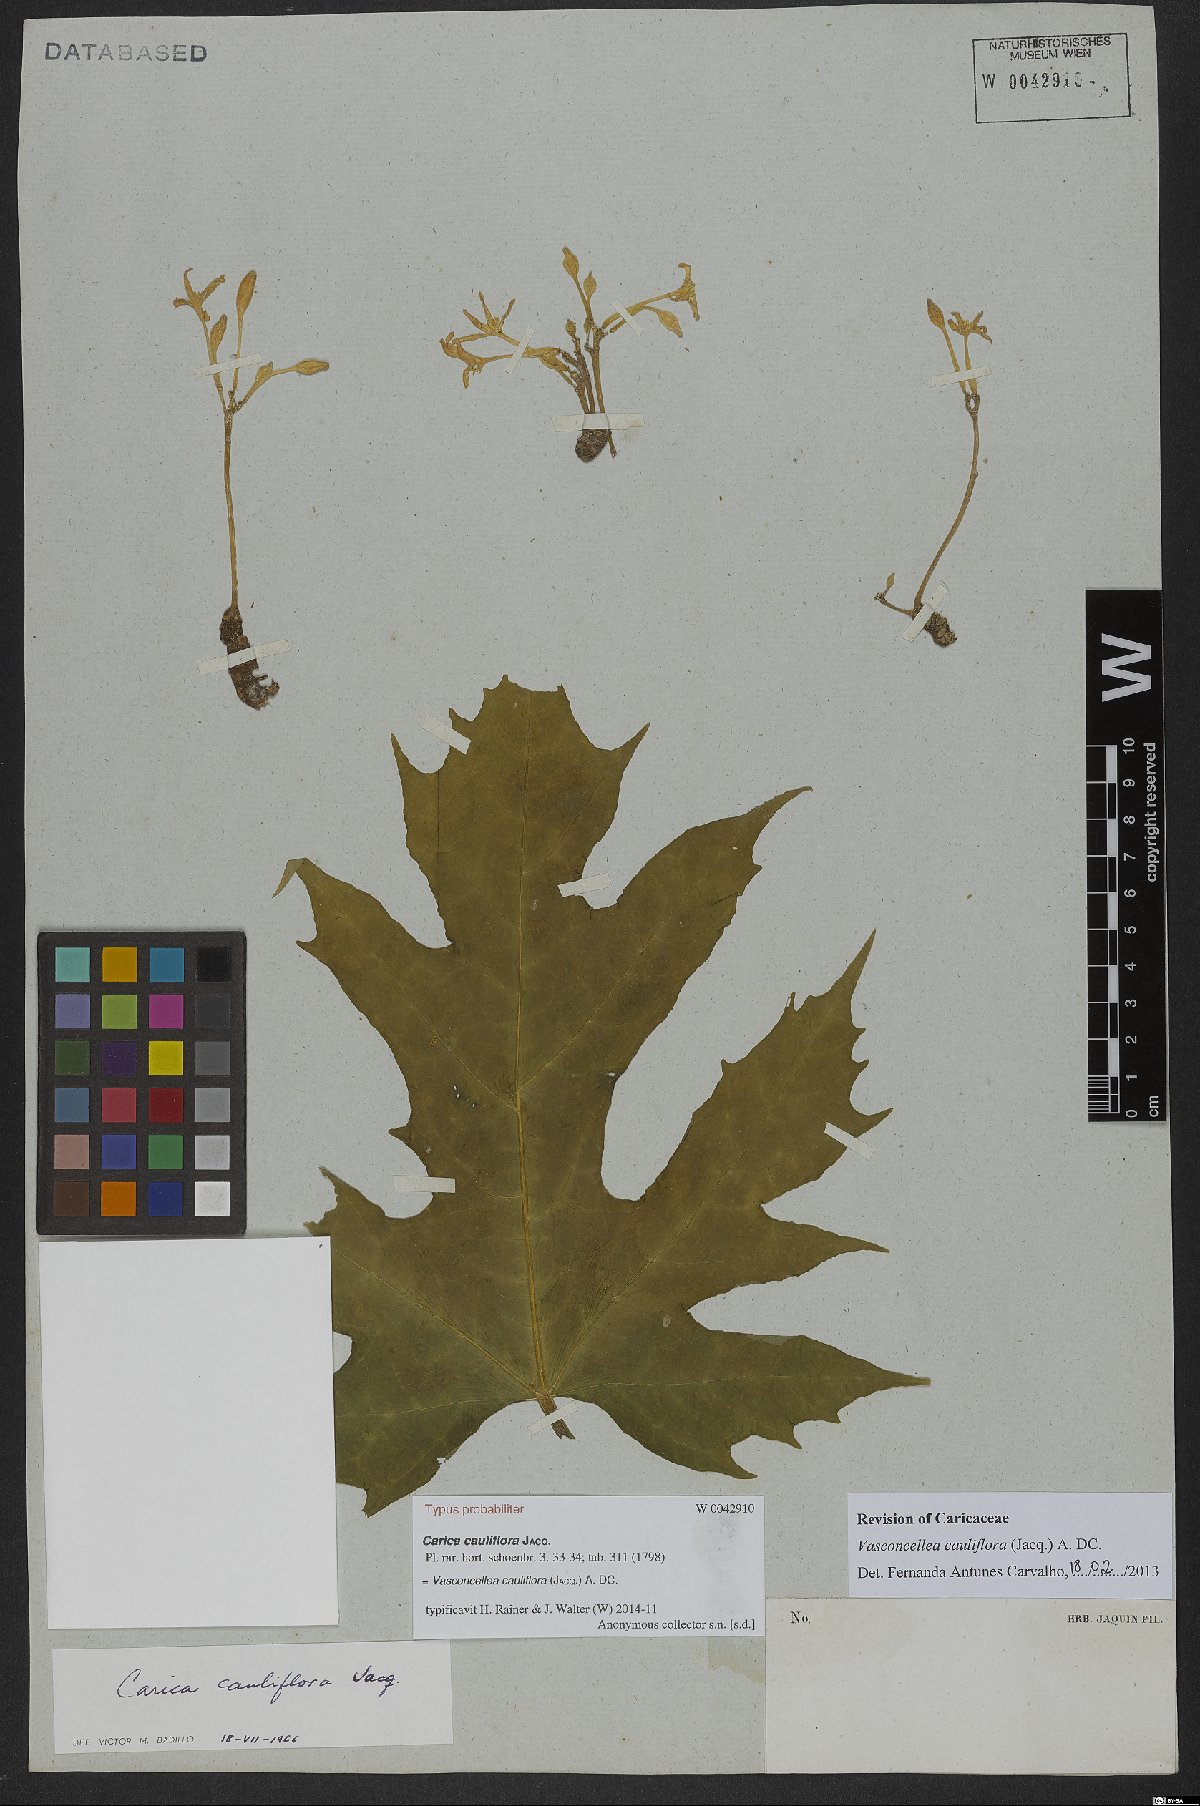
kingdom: Plantae
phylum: Tracheophyta
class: Magnoliopsida
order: Brassicales
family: Caricaceae
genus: Vasconcellea
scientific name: Vasconcellea cauliflora
